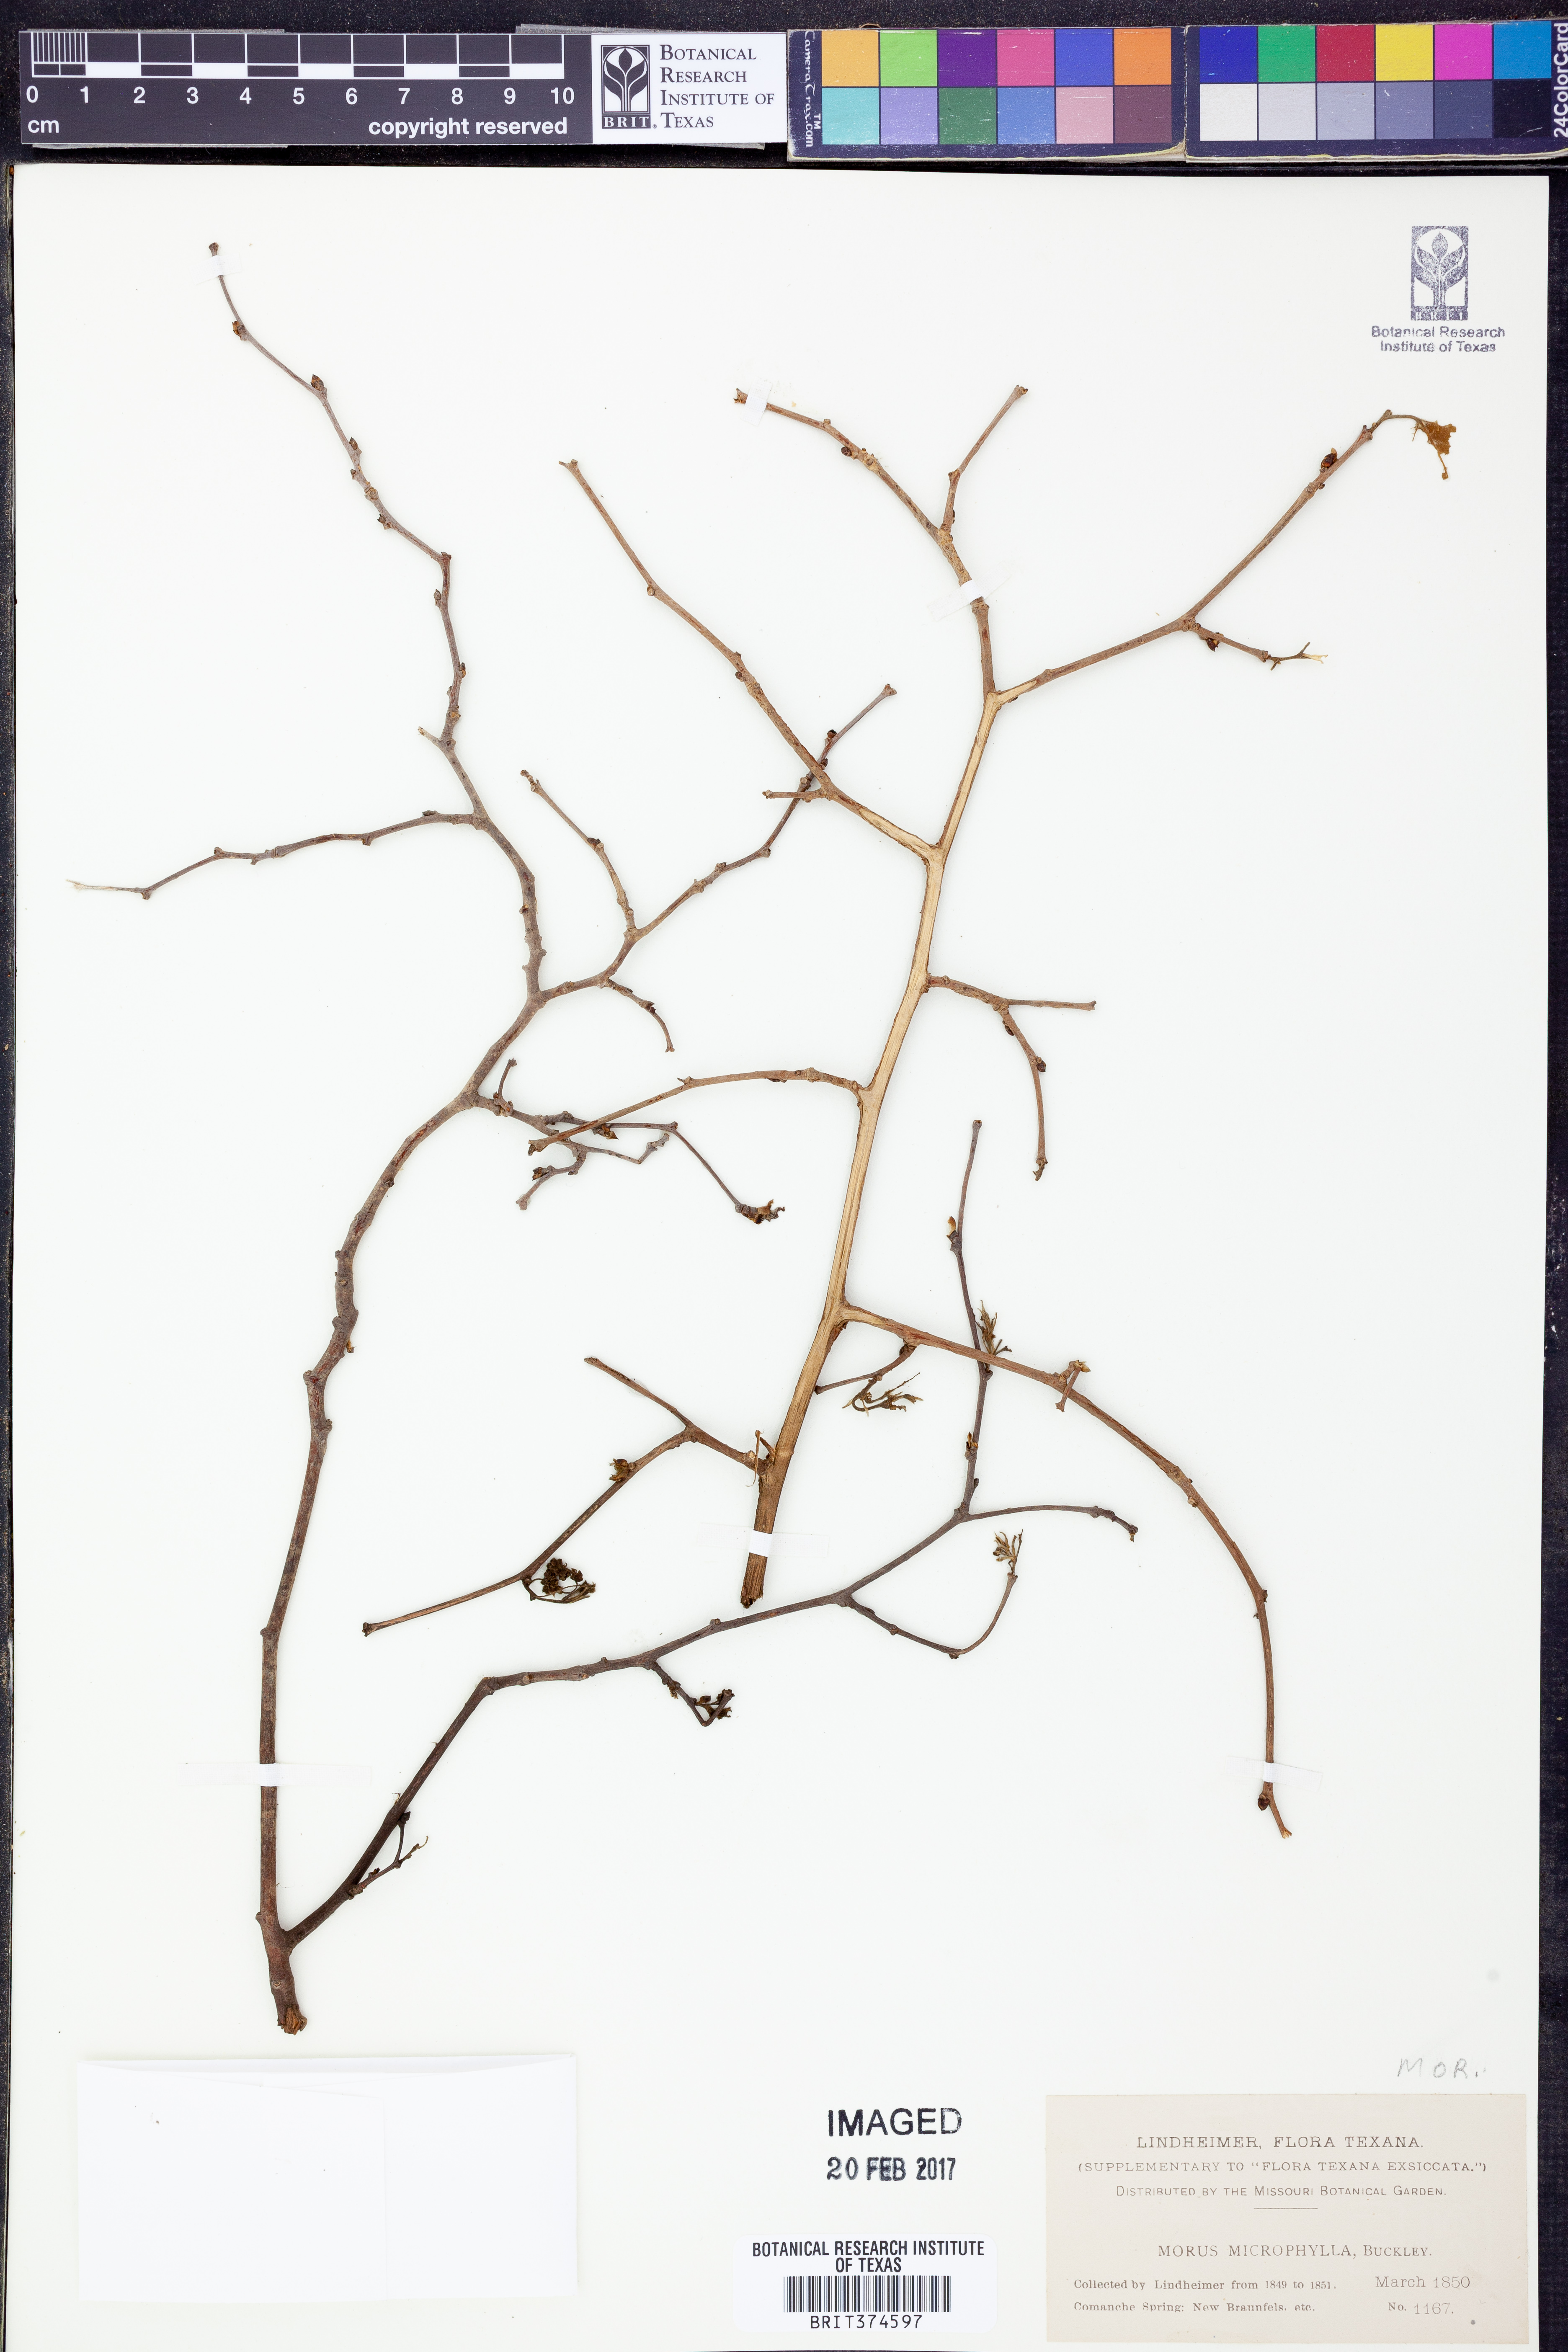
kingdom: Plantae
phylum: Tracheophyta
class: Magnoliopsida
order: Rosales
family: Moraceae
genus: Morus
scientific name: Morus microphylla
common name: Mexican mulberry
